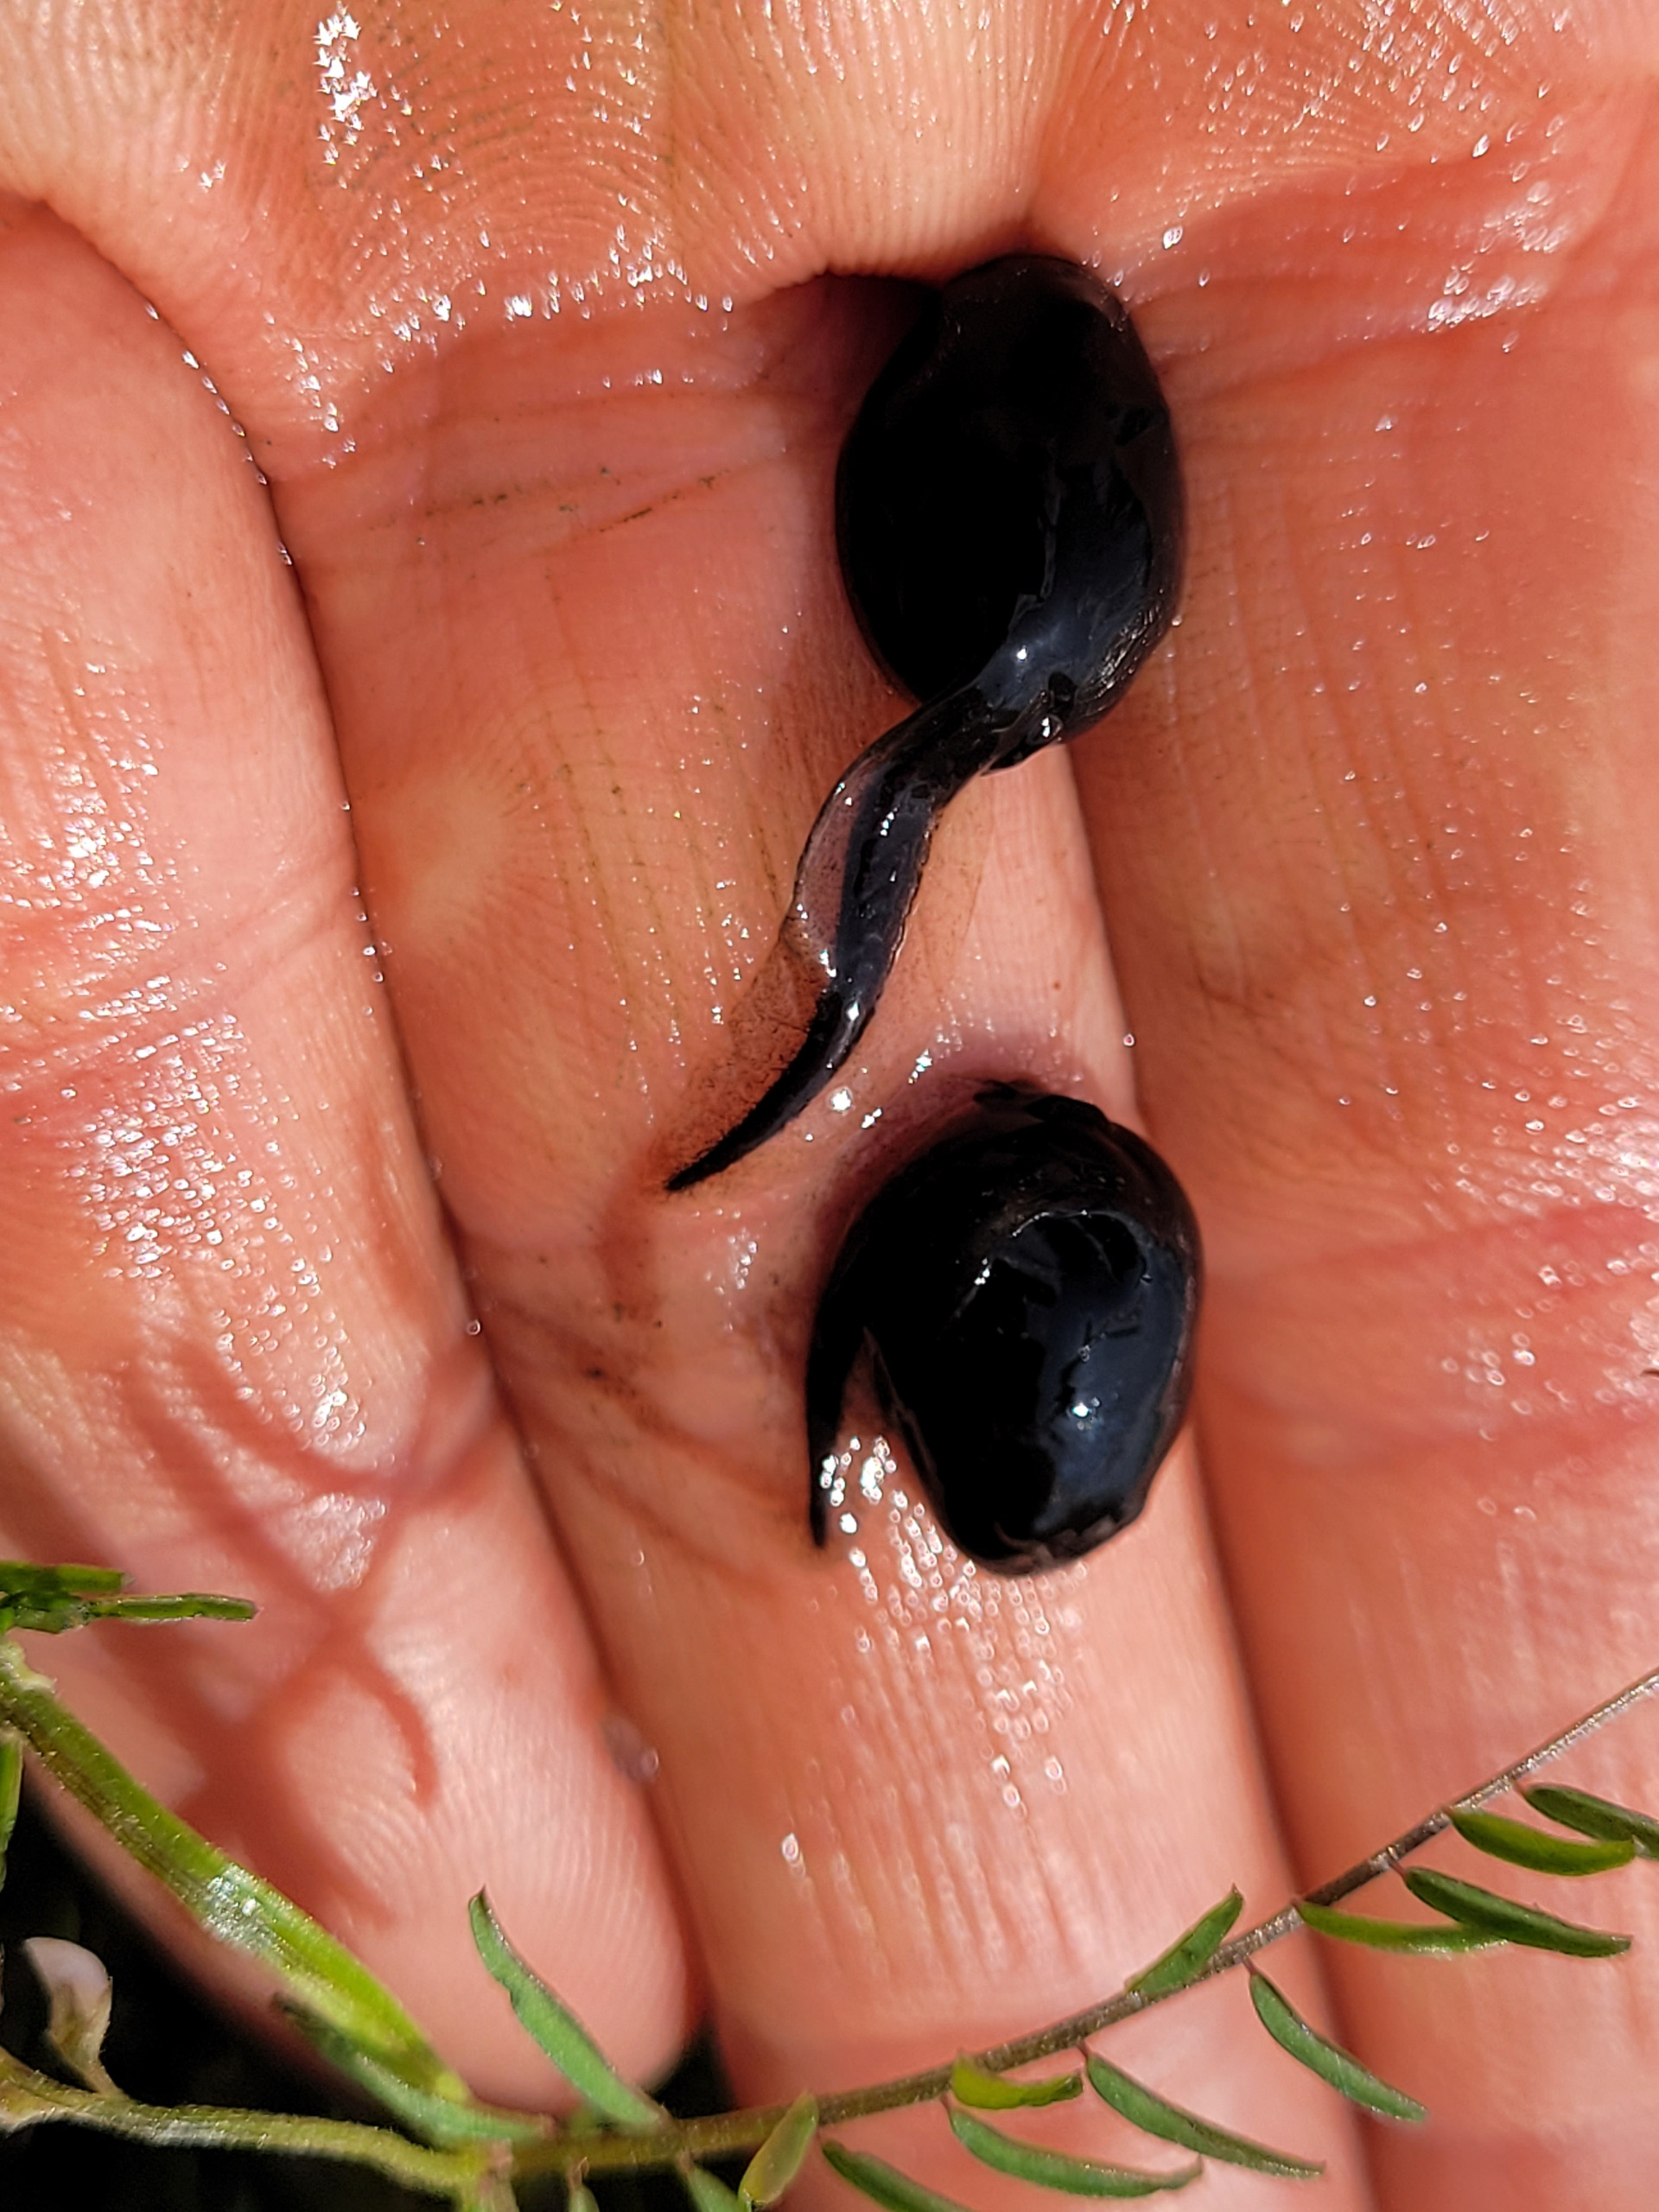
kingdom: Animalia
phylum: Chordata
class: Amphibia
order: Anura
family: Bufonidae
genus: Bufo
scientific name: Bufo bufo
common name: Skrubtudse
